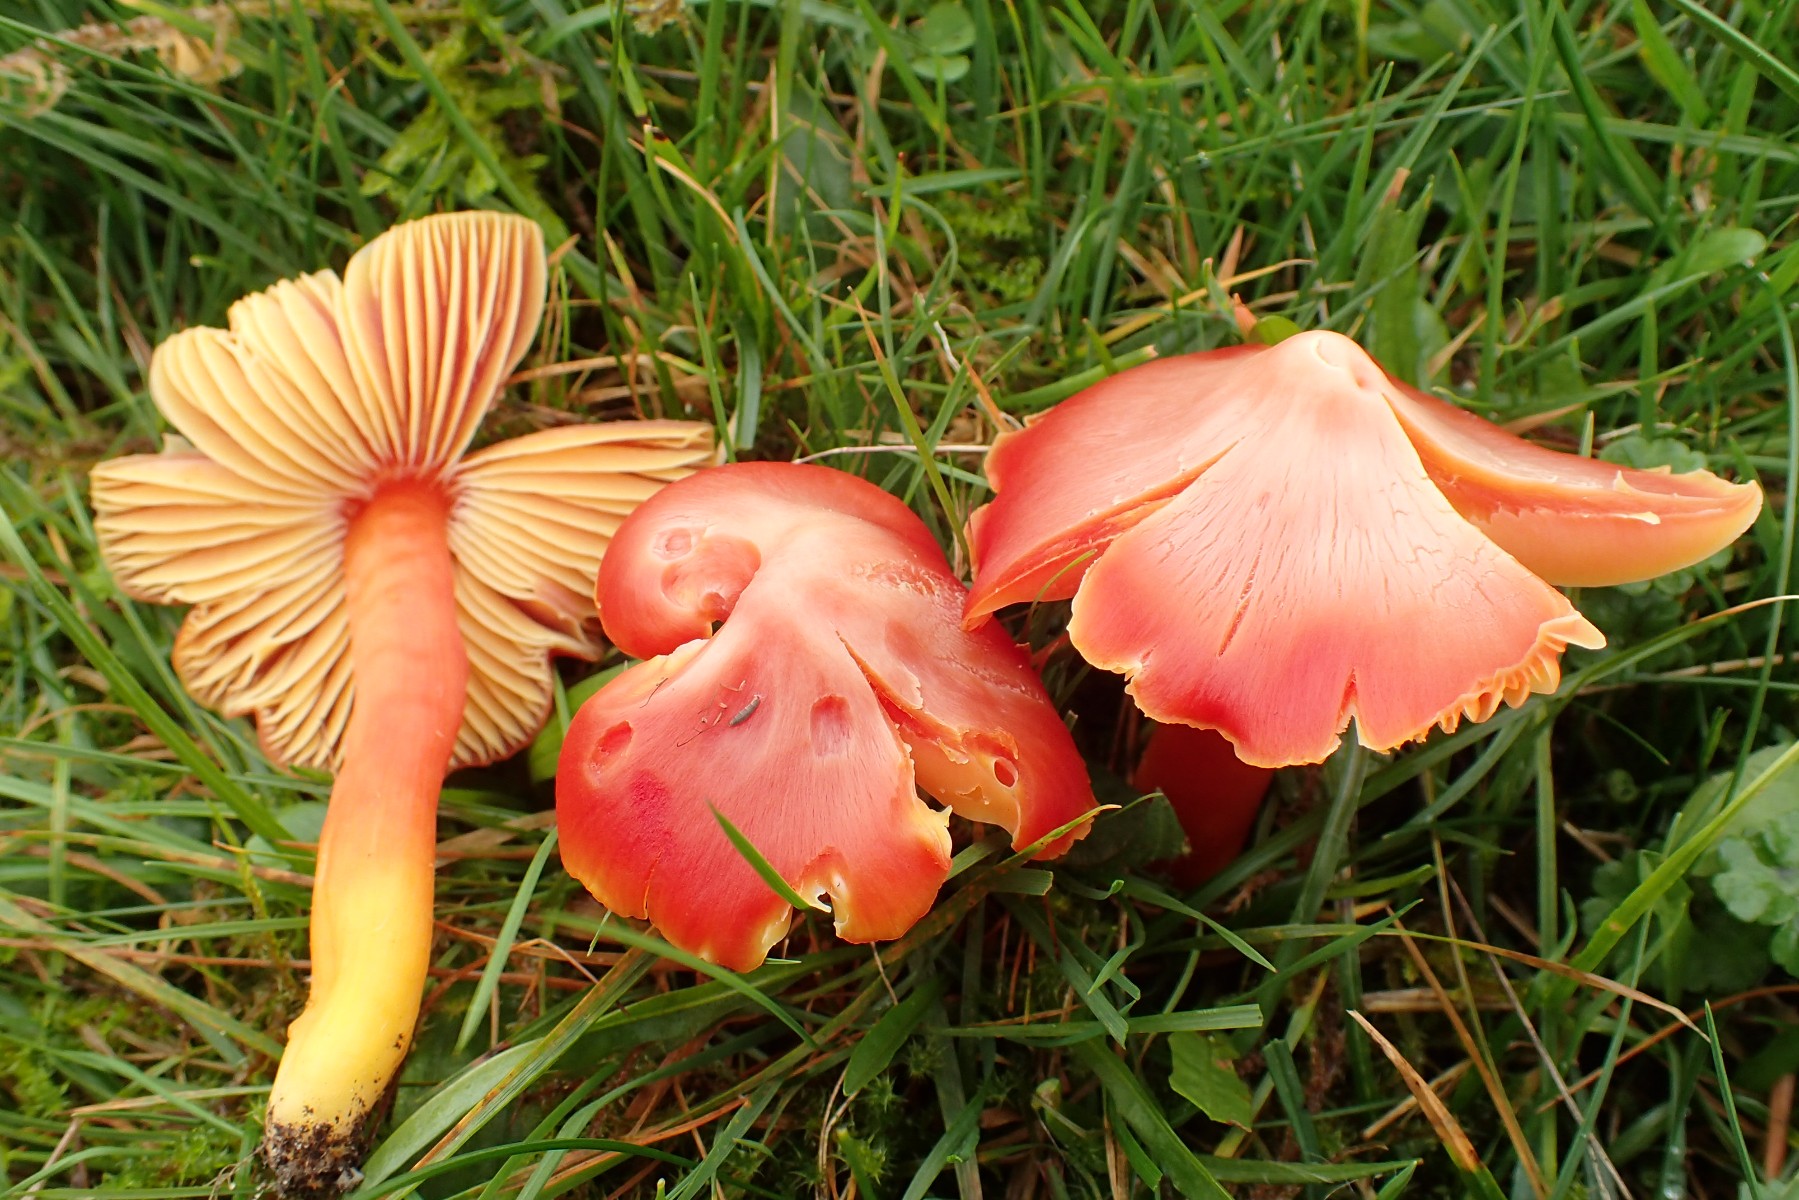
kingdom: Fungi
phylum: Basidiomycota
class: Agaricomycetes
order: Agaricales
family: Hygrophoraceae
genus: Hygrocybe
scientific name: Hygrocybe splendidissima
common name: knaldrød vokshat
